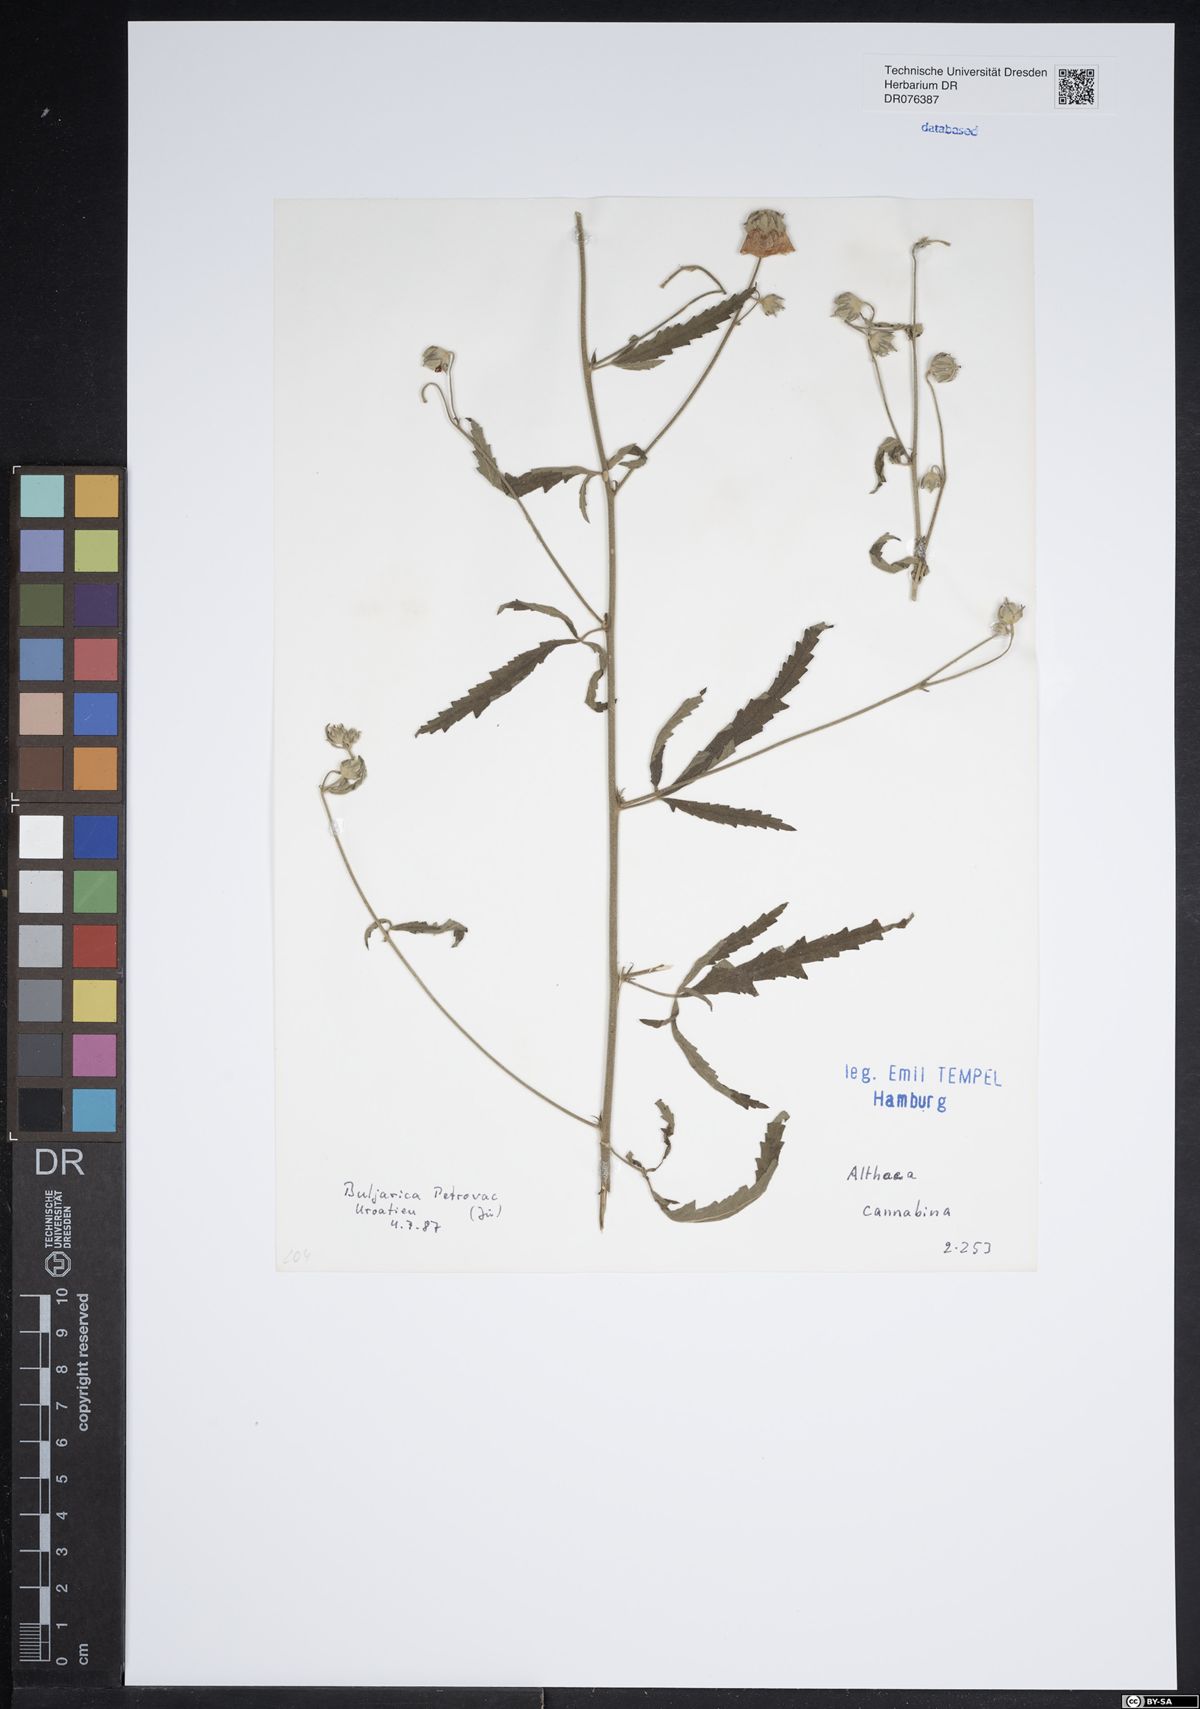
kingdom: Plantae
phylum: Tracheophyta
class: Magnoliopsida
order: Malvales
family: Malvaceae
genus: Althaea
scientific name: Althaea cannabina
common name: Palm-leaf marshmallow
